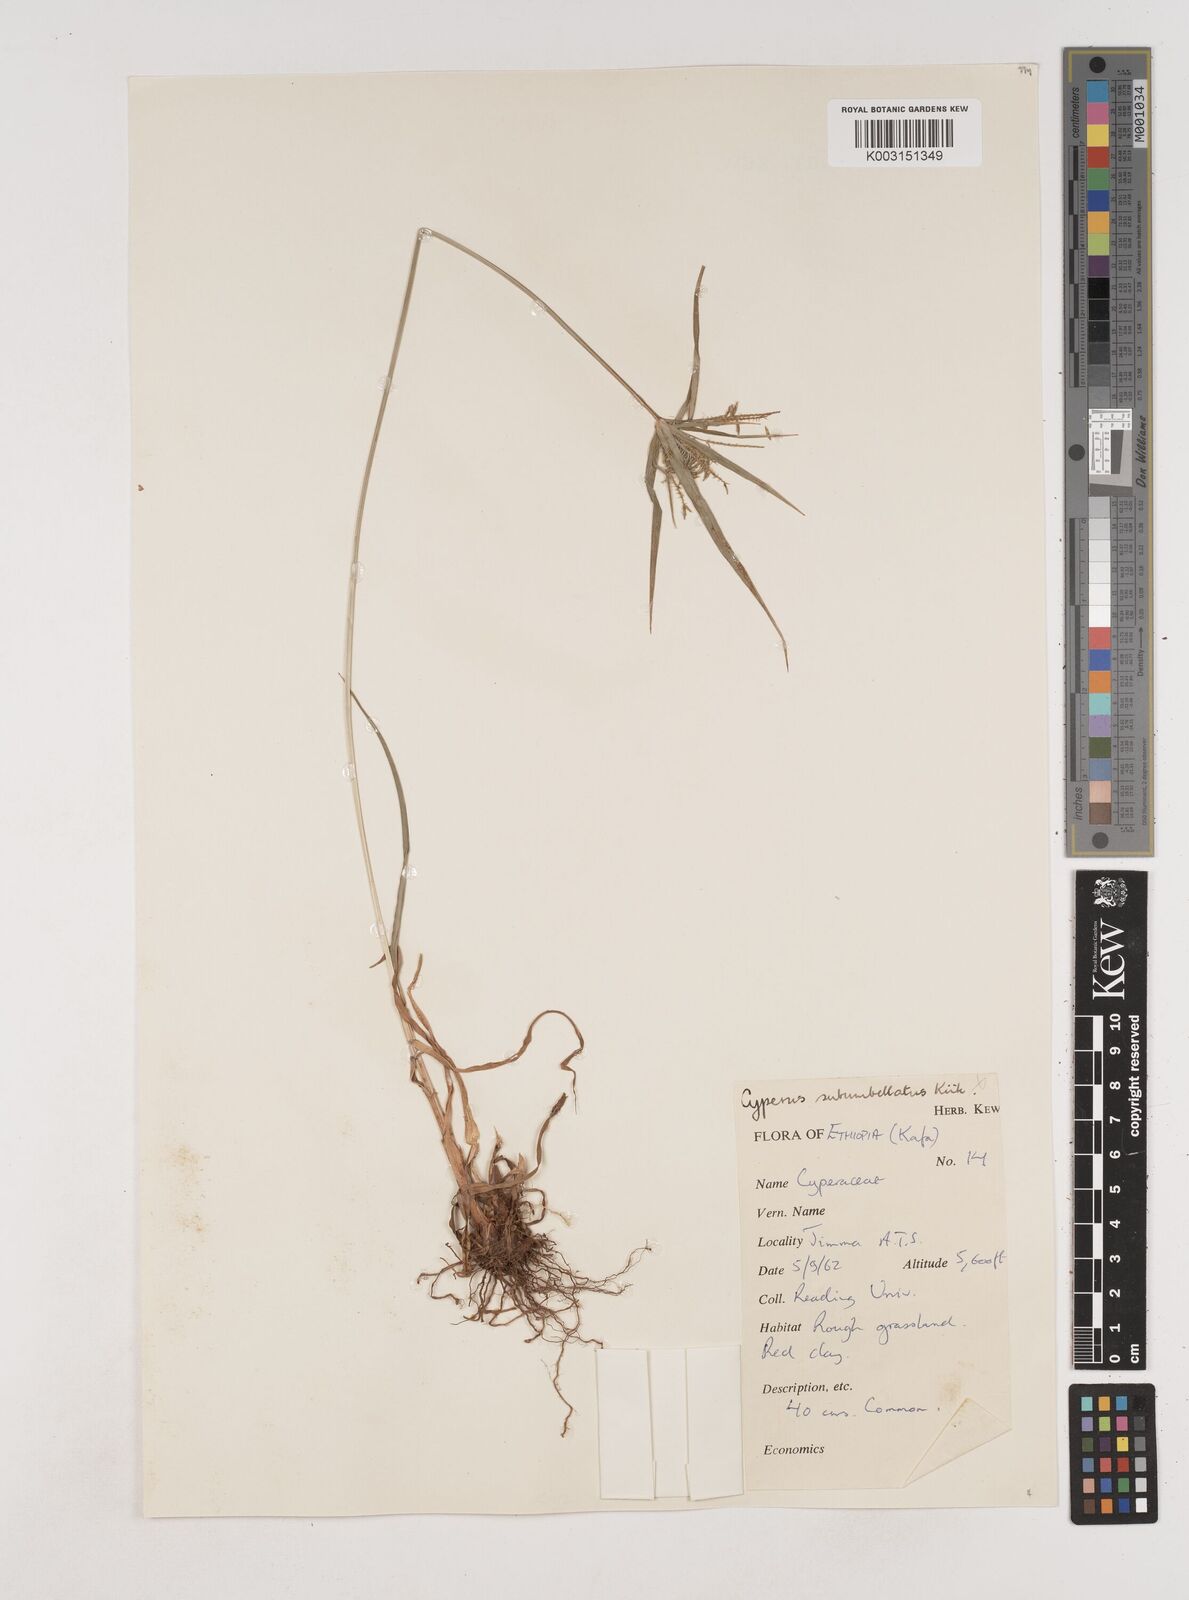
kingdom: Plantae
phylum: Tracheophyta
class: Liliopsida
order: Poales
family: Cyperaceae
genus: Cyperus
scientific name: Cyperus cyperoides
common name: Pacific island flat sedge
